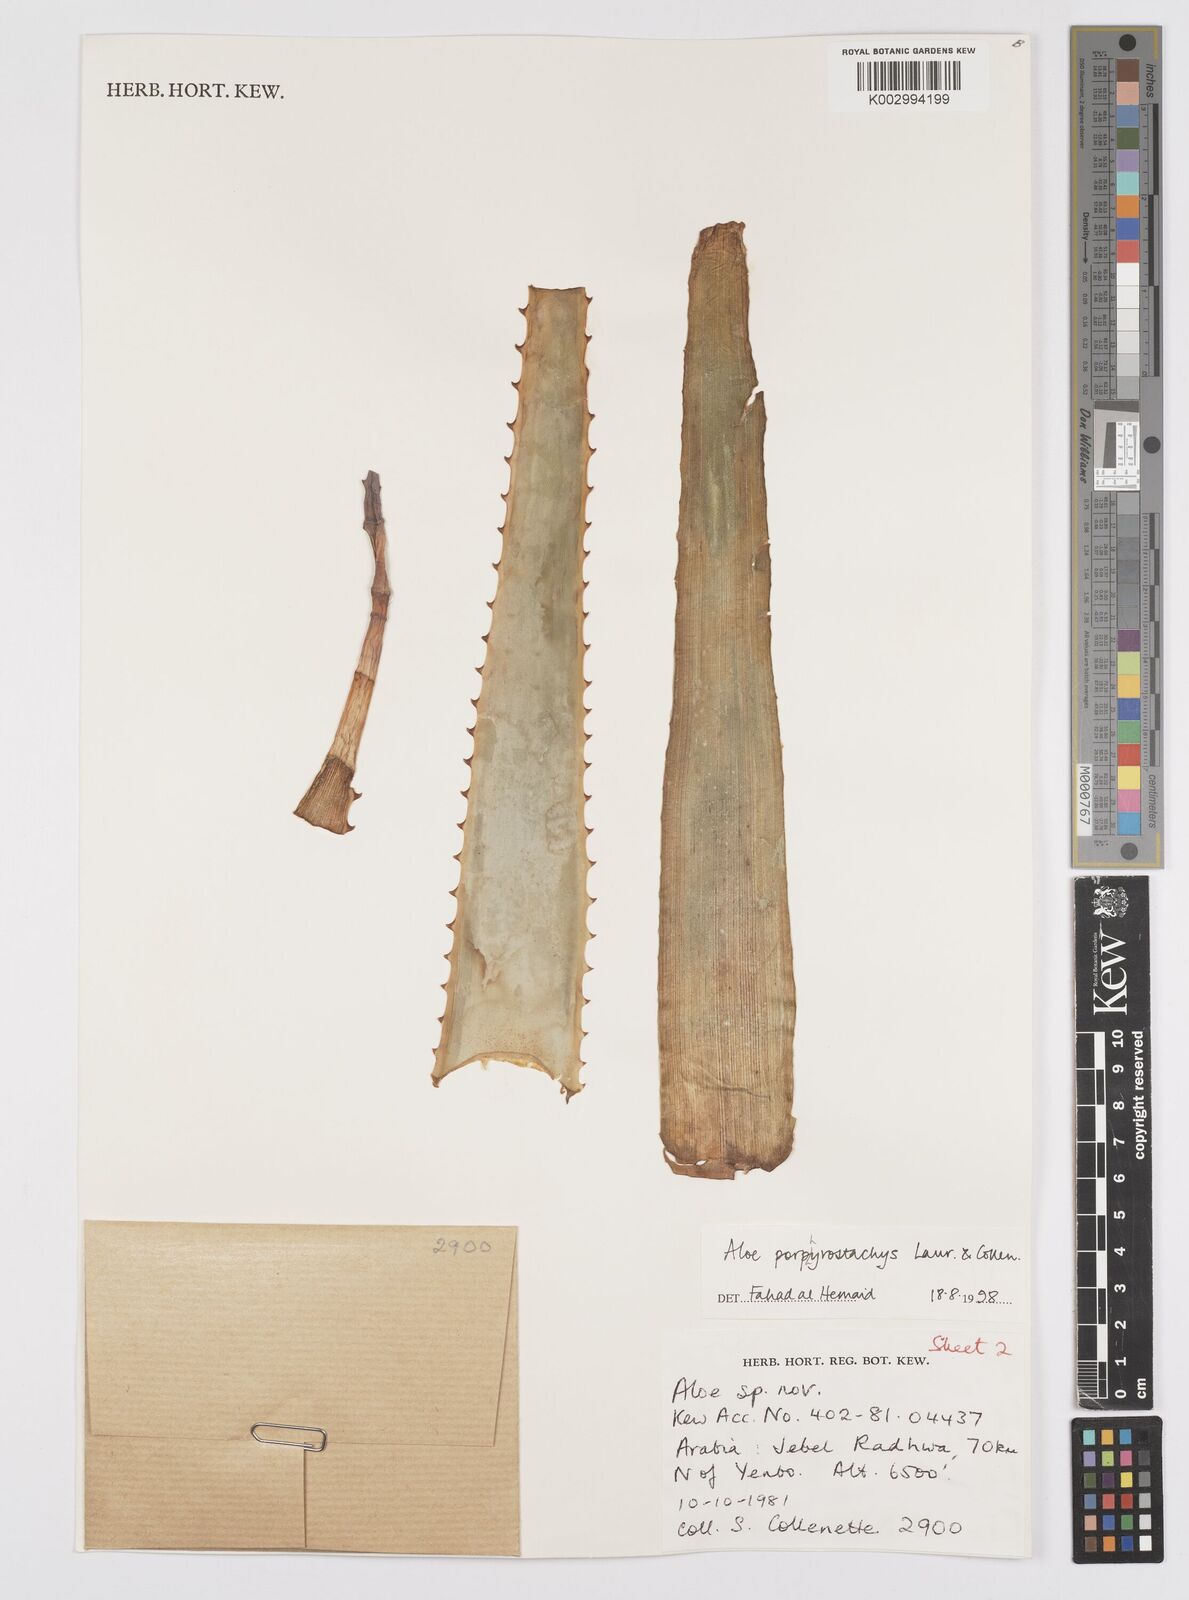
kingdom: Plantae
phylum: Tracheophyta
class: Liliopsida
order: Asparagales
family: Asphodelaceae
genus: Aloe
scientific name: Aloe porphyrostachys
